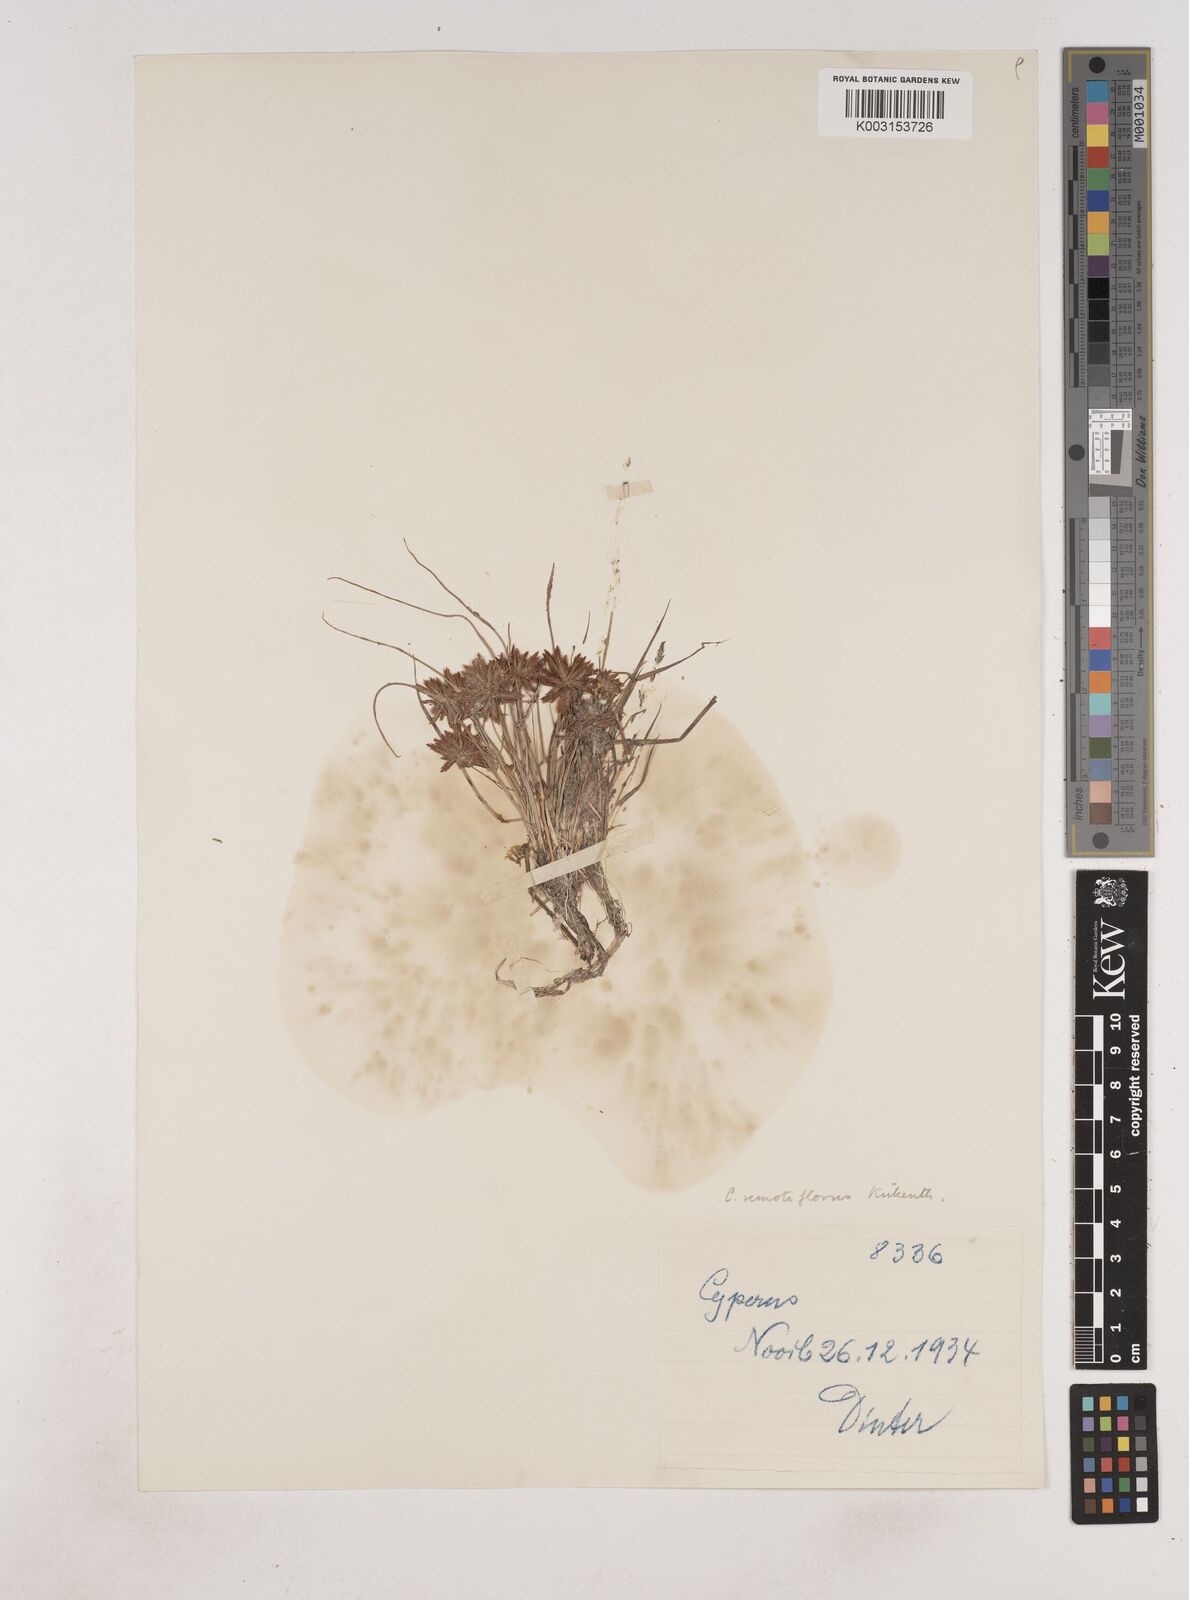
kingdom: Plantae
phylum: Tracheophyta
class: Liliopsida
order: Poales
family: Cyperaceae
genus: Cyperus
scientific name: Cyperus remotiflorus
